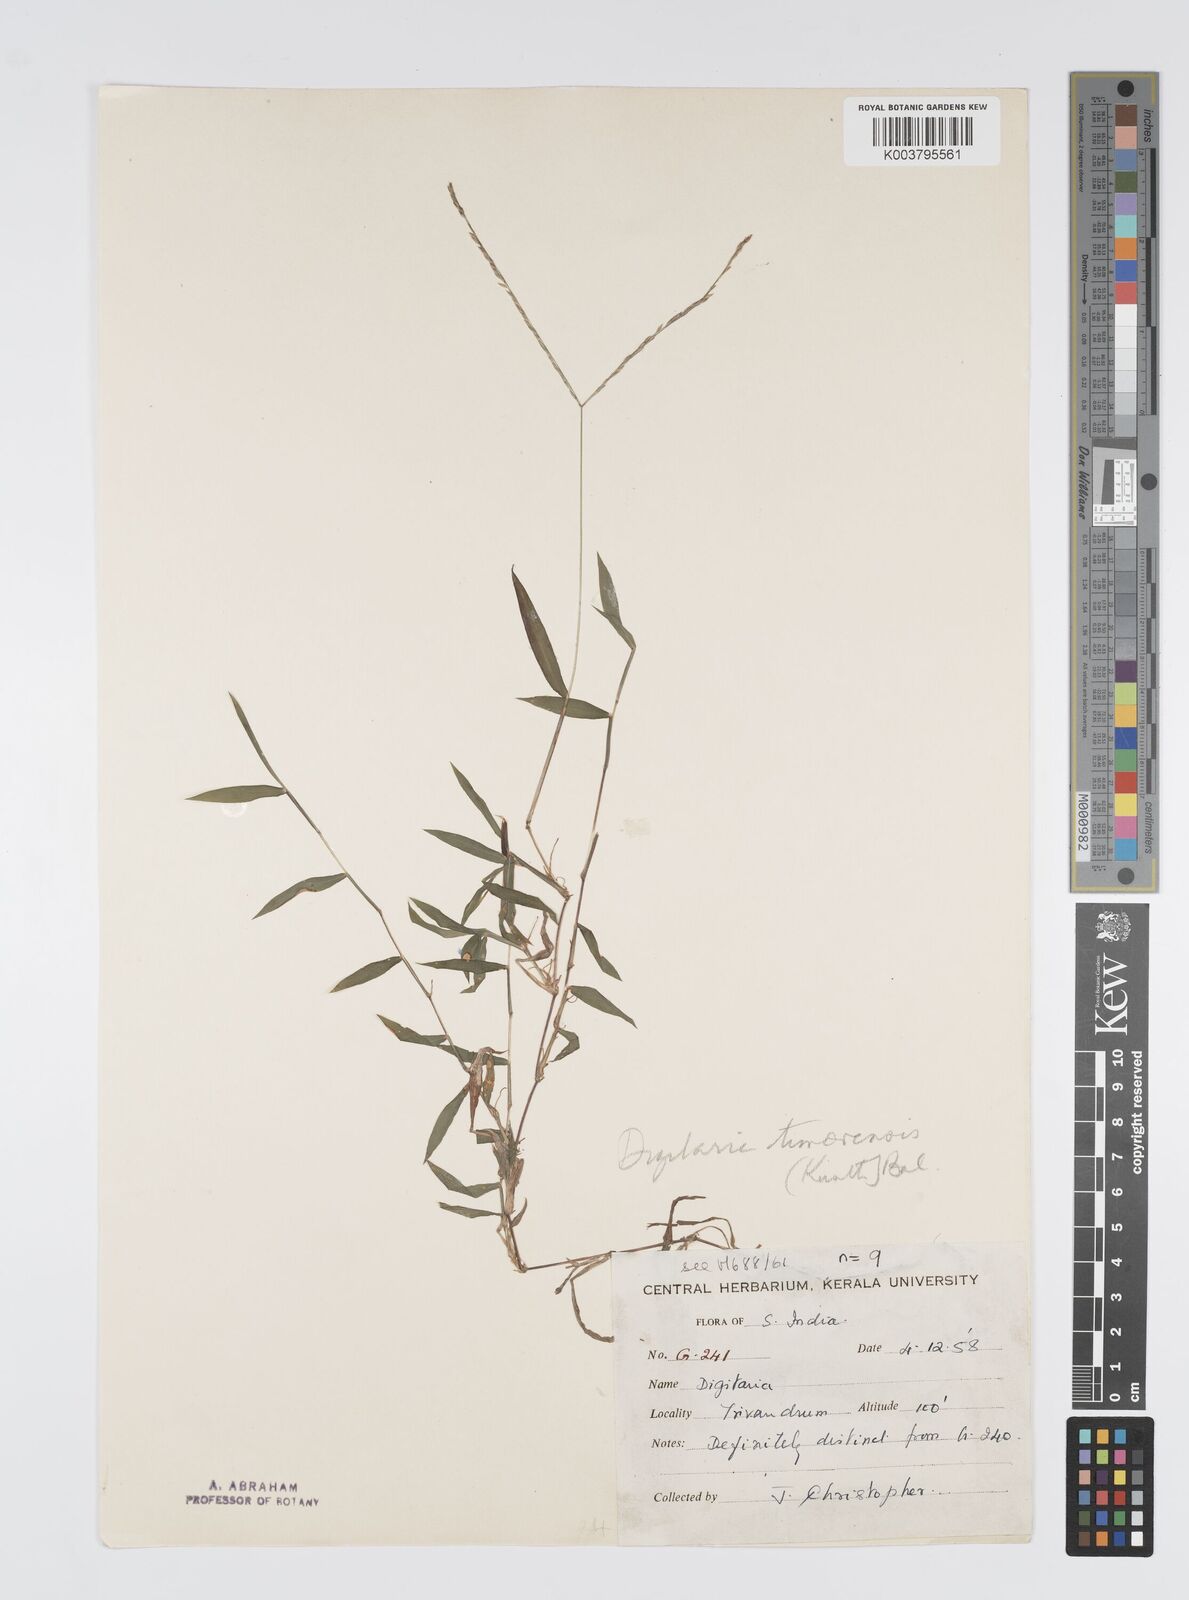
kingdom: Plantae
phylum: Tracheophyta
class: Liliopsida
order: Poales
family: Poaceae
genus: Digitaria
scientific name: Digitaria radicosa
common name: Trailing crabgrass
